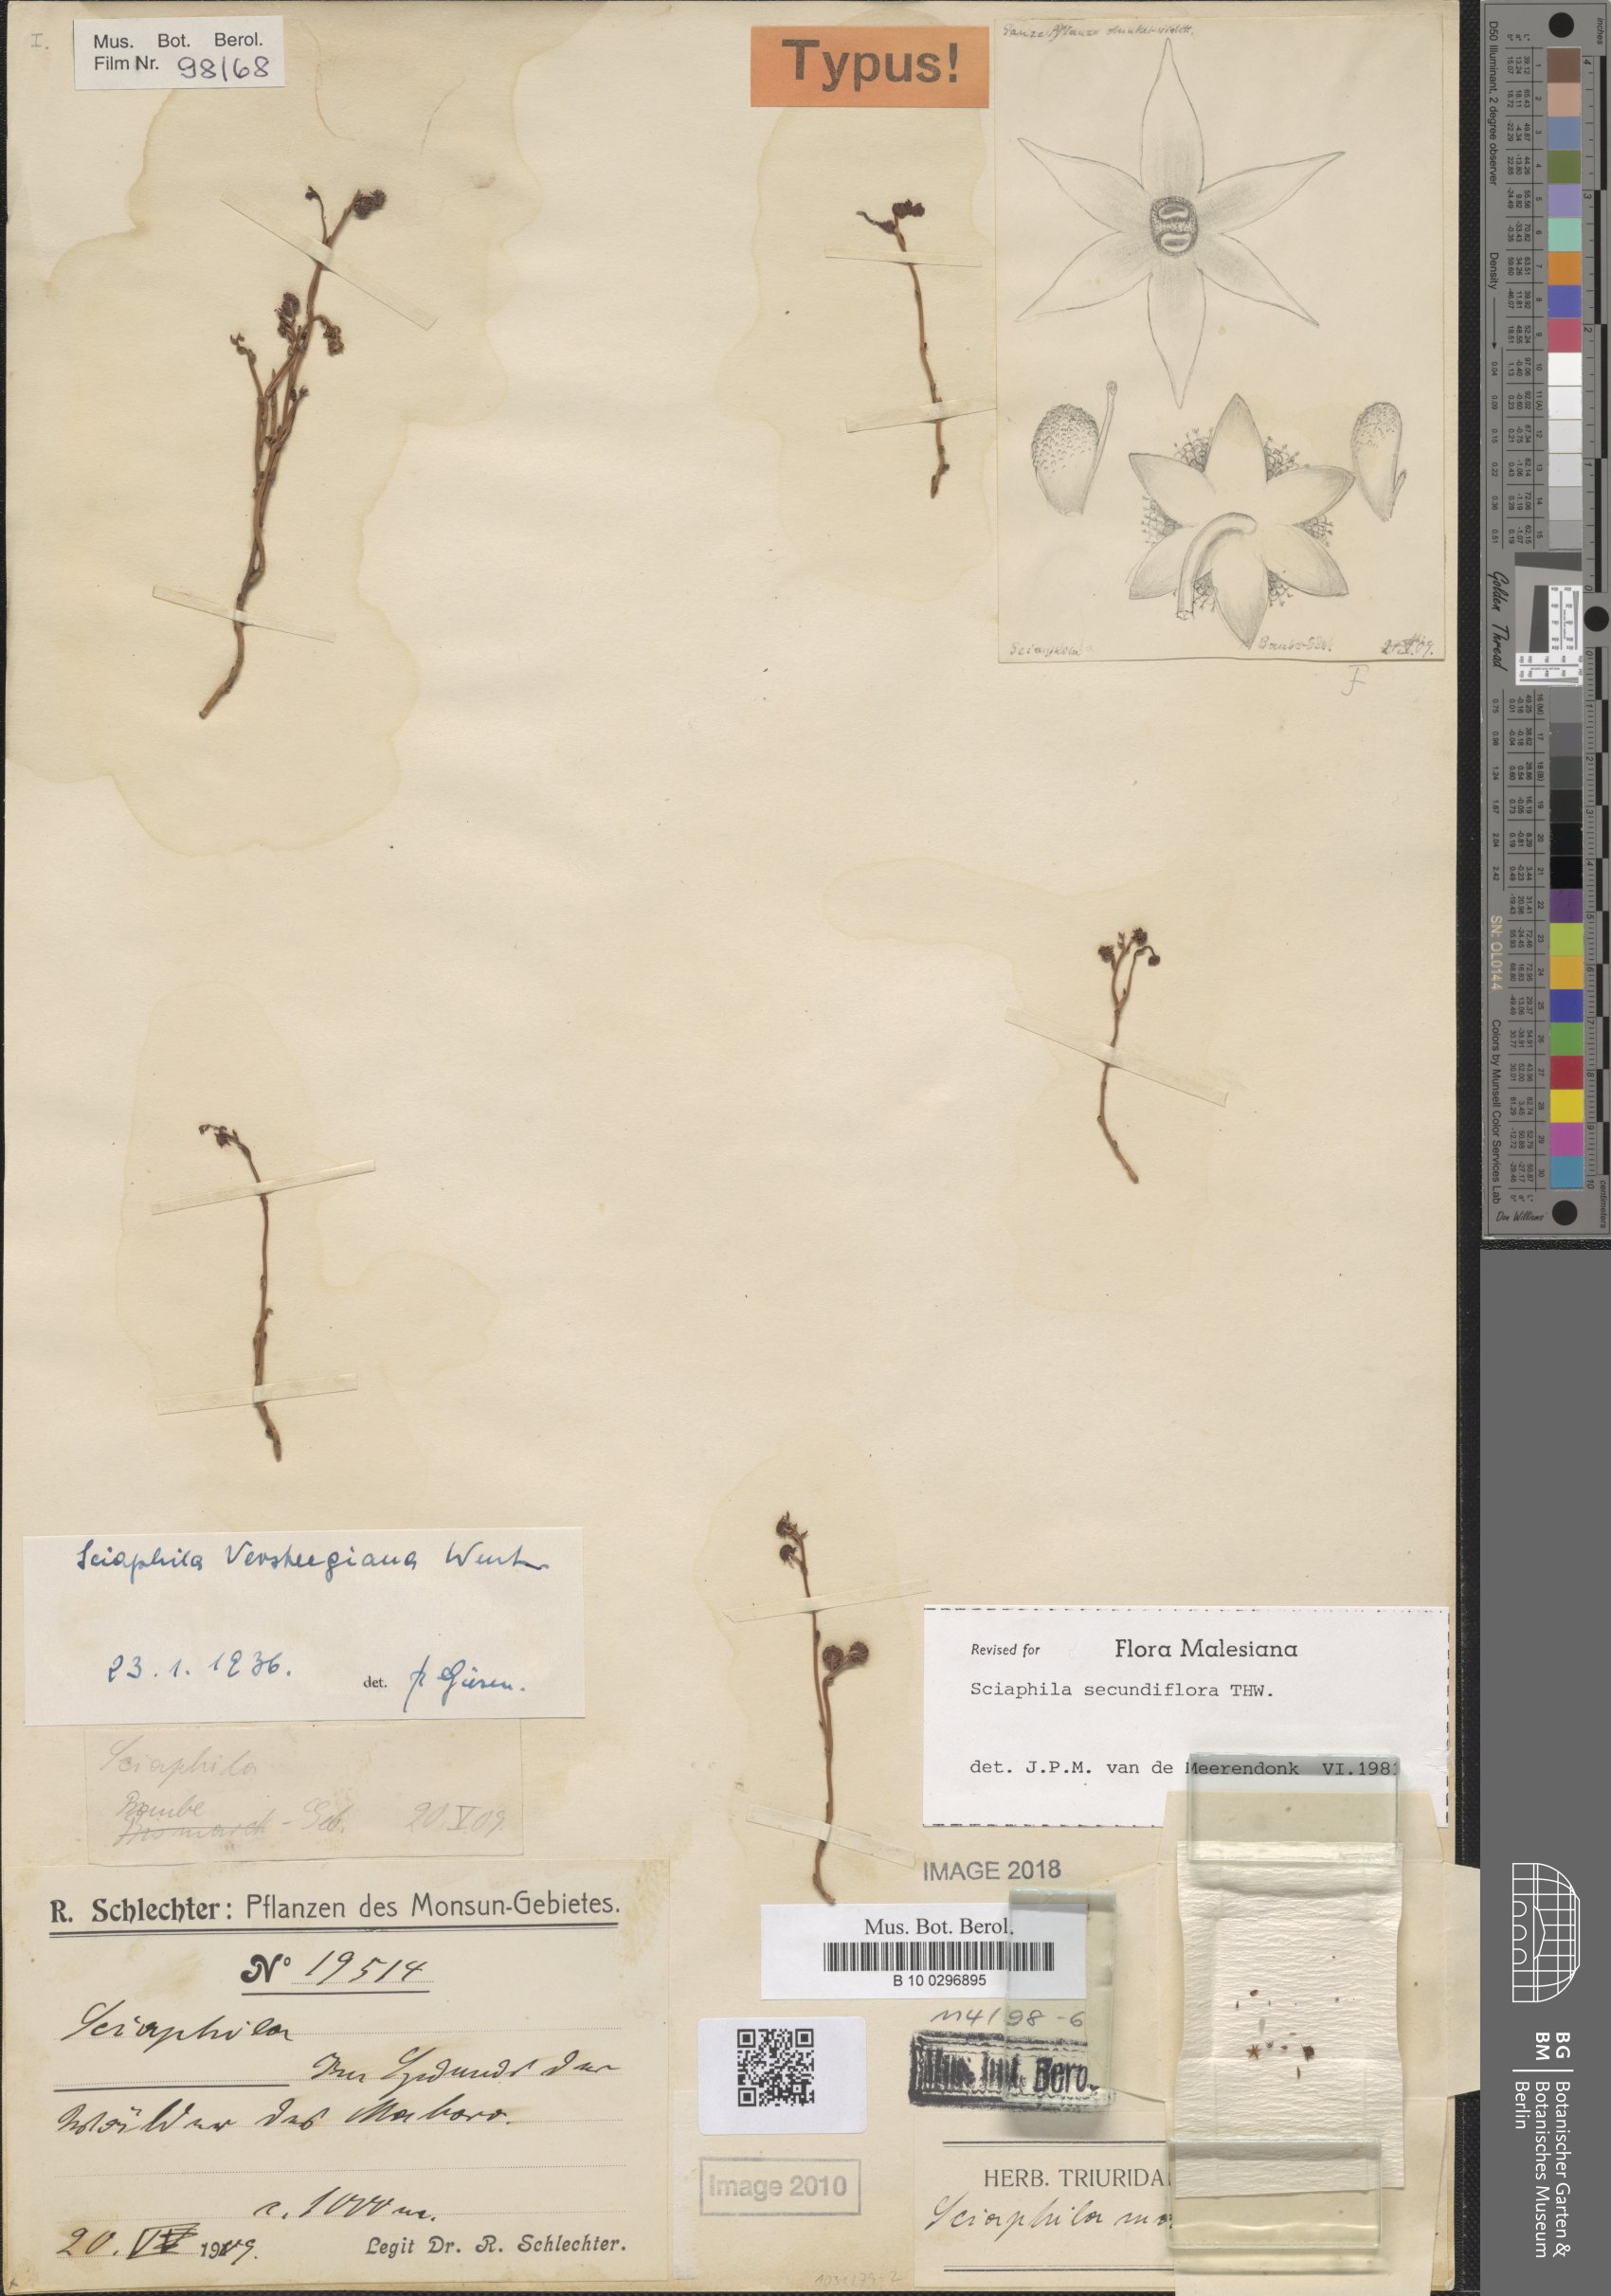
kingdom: Plantae
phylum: Tracheophyta
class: Liliopsida
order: Pandanales
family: Triuridaceae
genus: Sciaphila
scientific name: Sciaphila secundiflora
